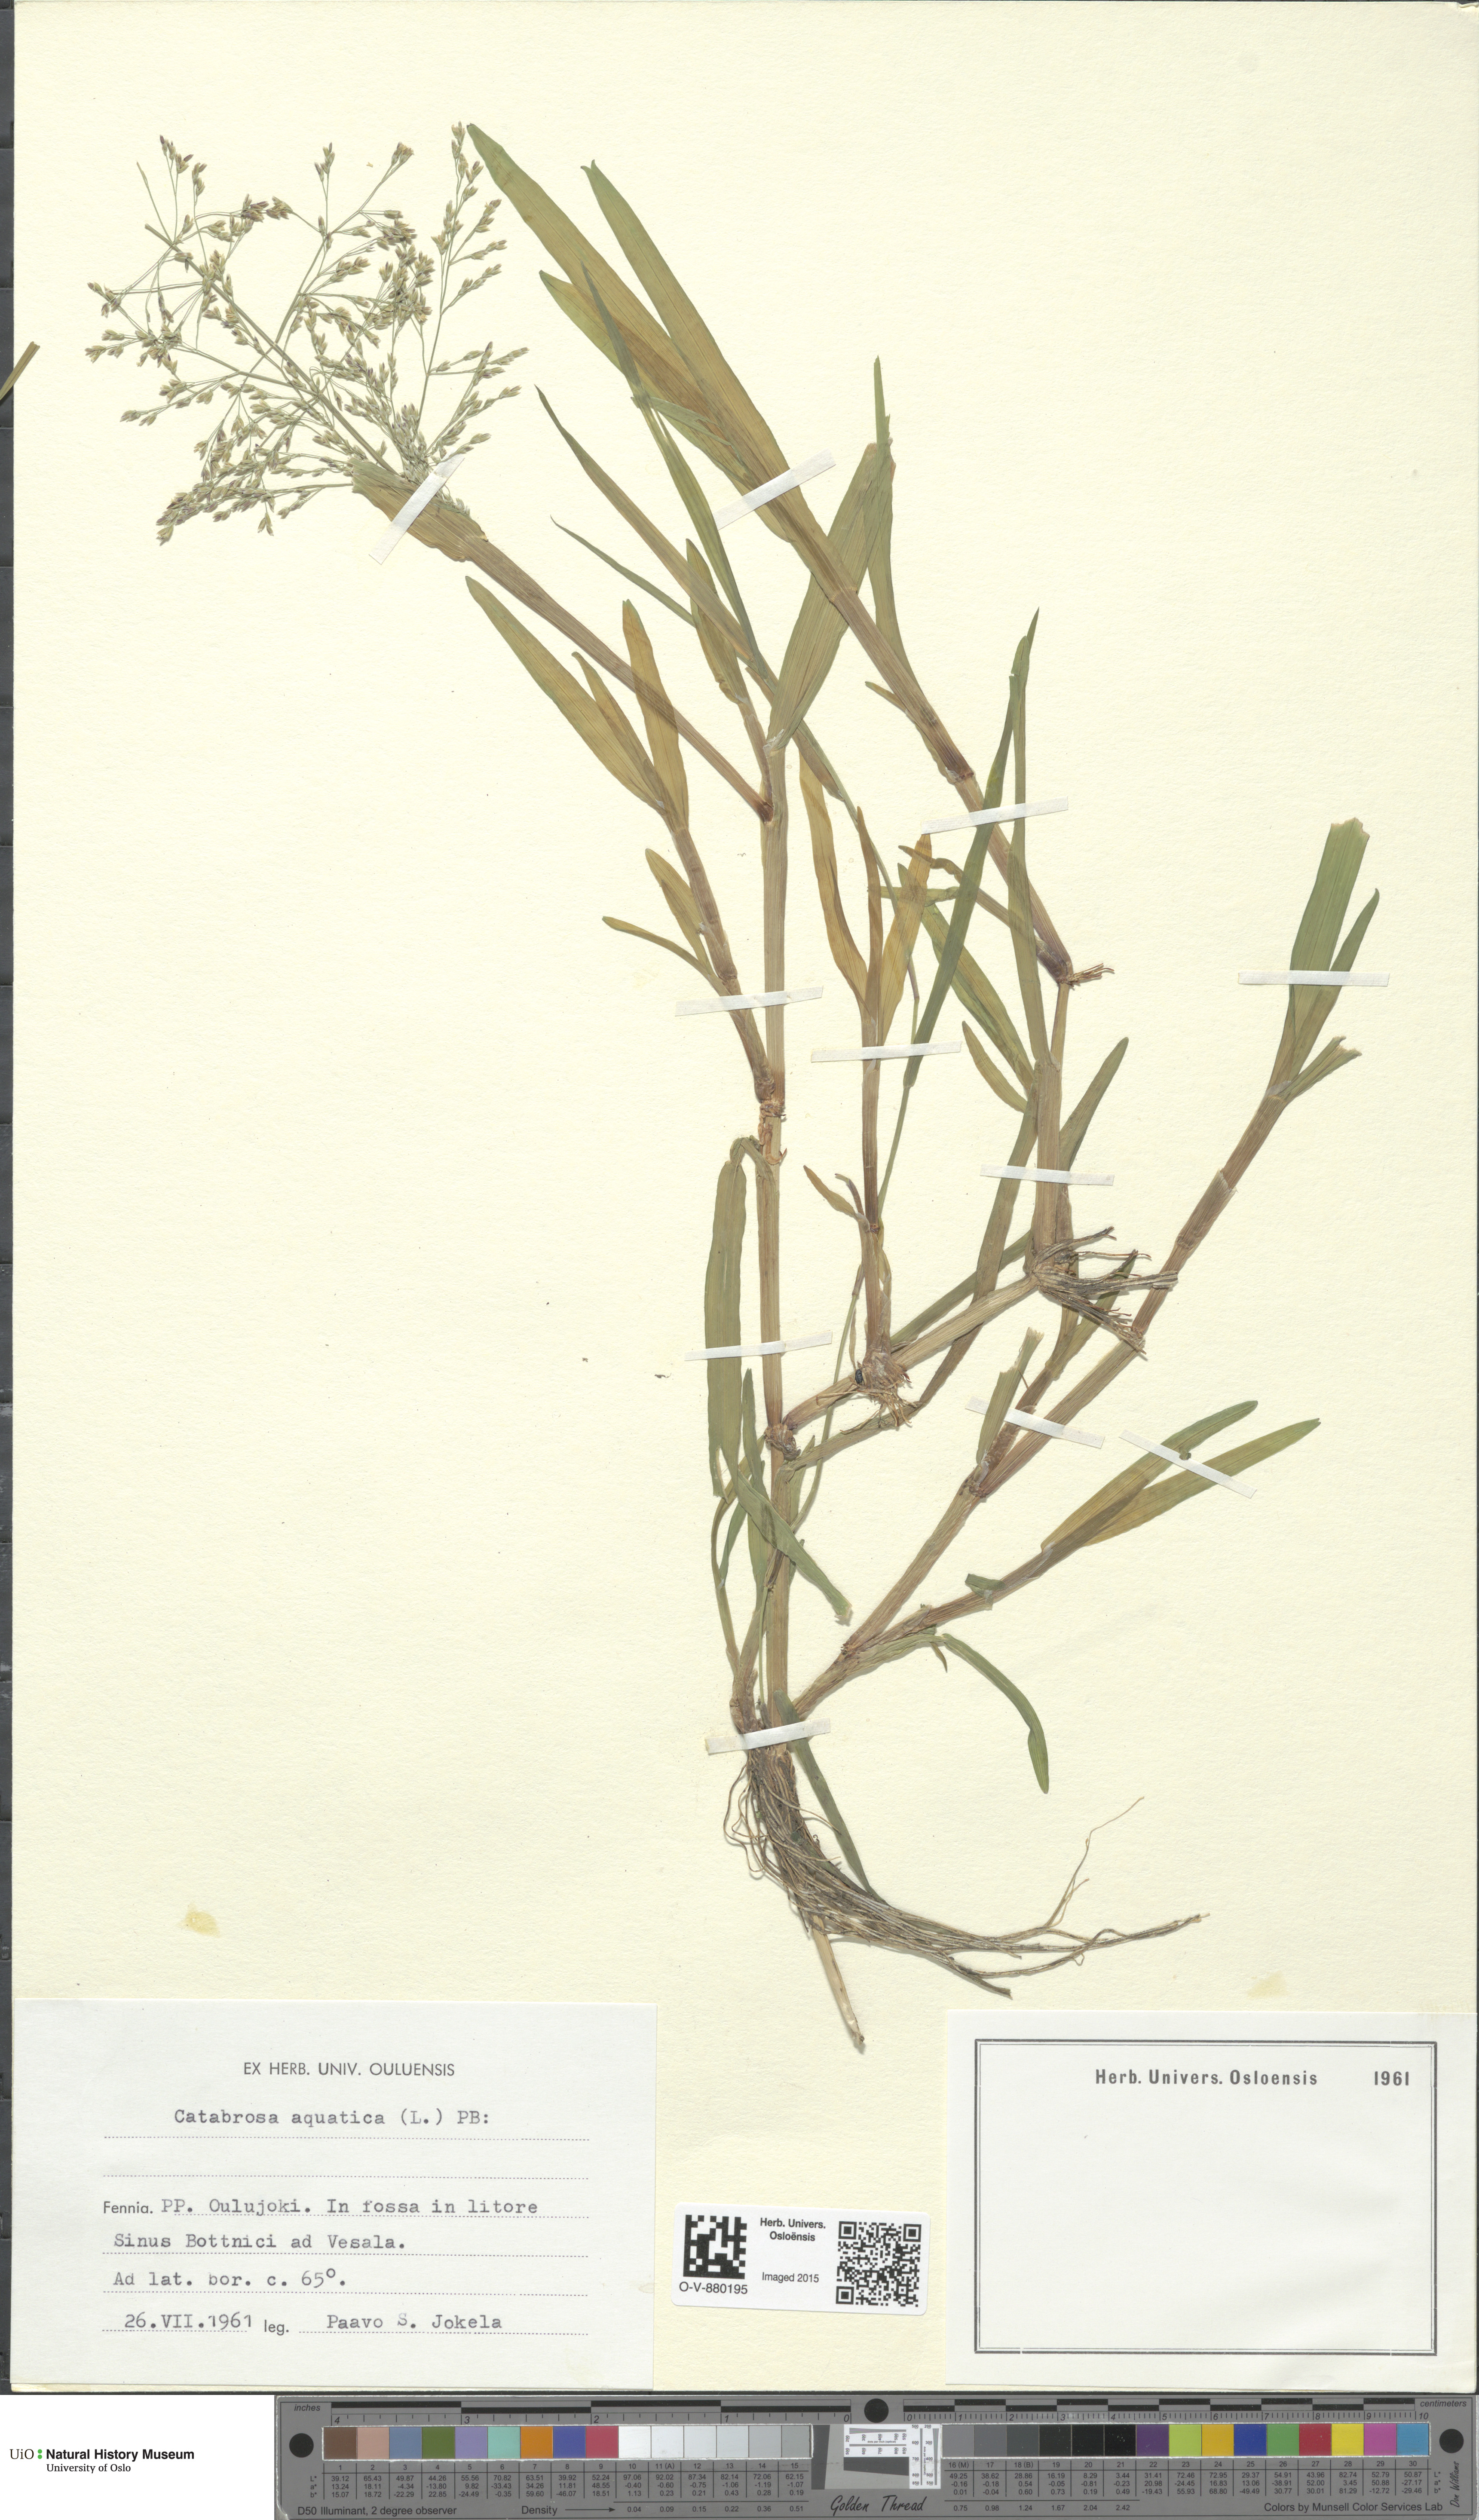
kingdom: Plantae
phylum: Tracheophyta
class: Liliopsida
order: Poales
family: Poaceae
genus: Catabrosa
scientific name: Catabrosa aquatica
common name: Whorl-grass
